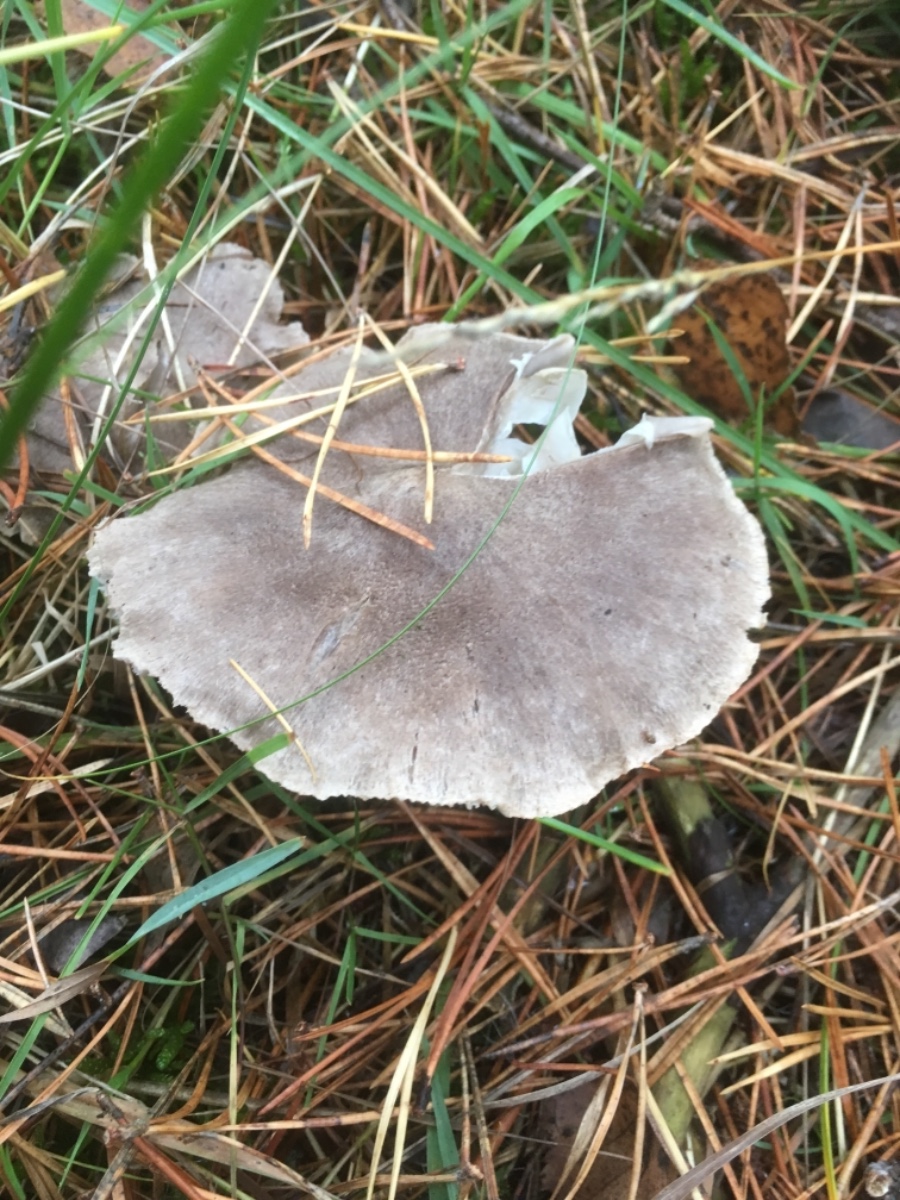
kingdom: Fungi
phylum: Basidiomycota
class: Agaricomycetes
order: Agaricales
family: Tricholomataceae
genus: Tricholoma
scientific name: Tricholoma
